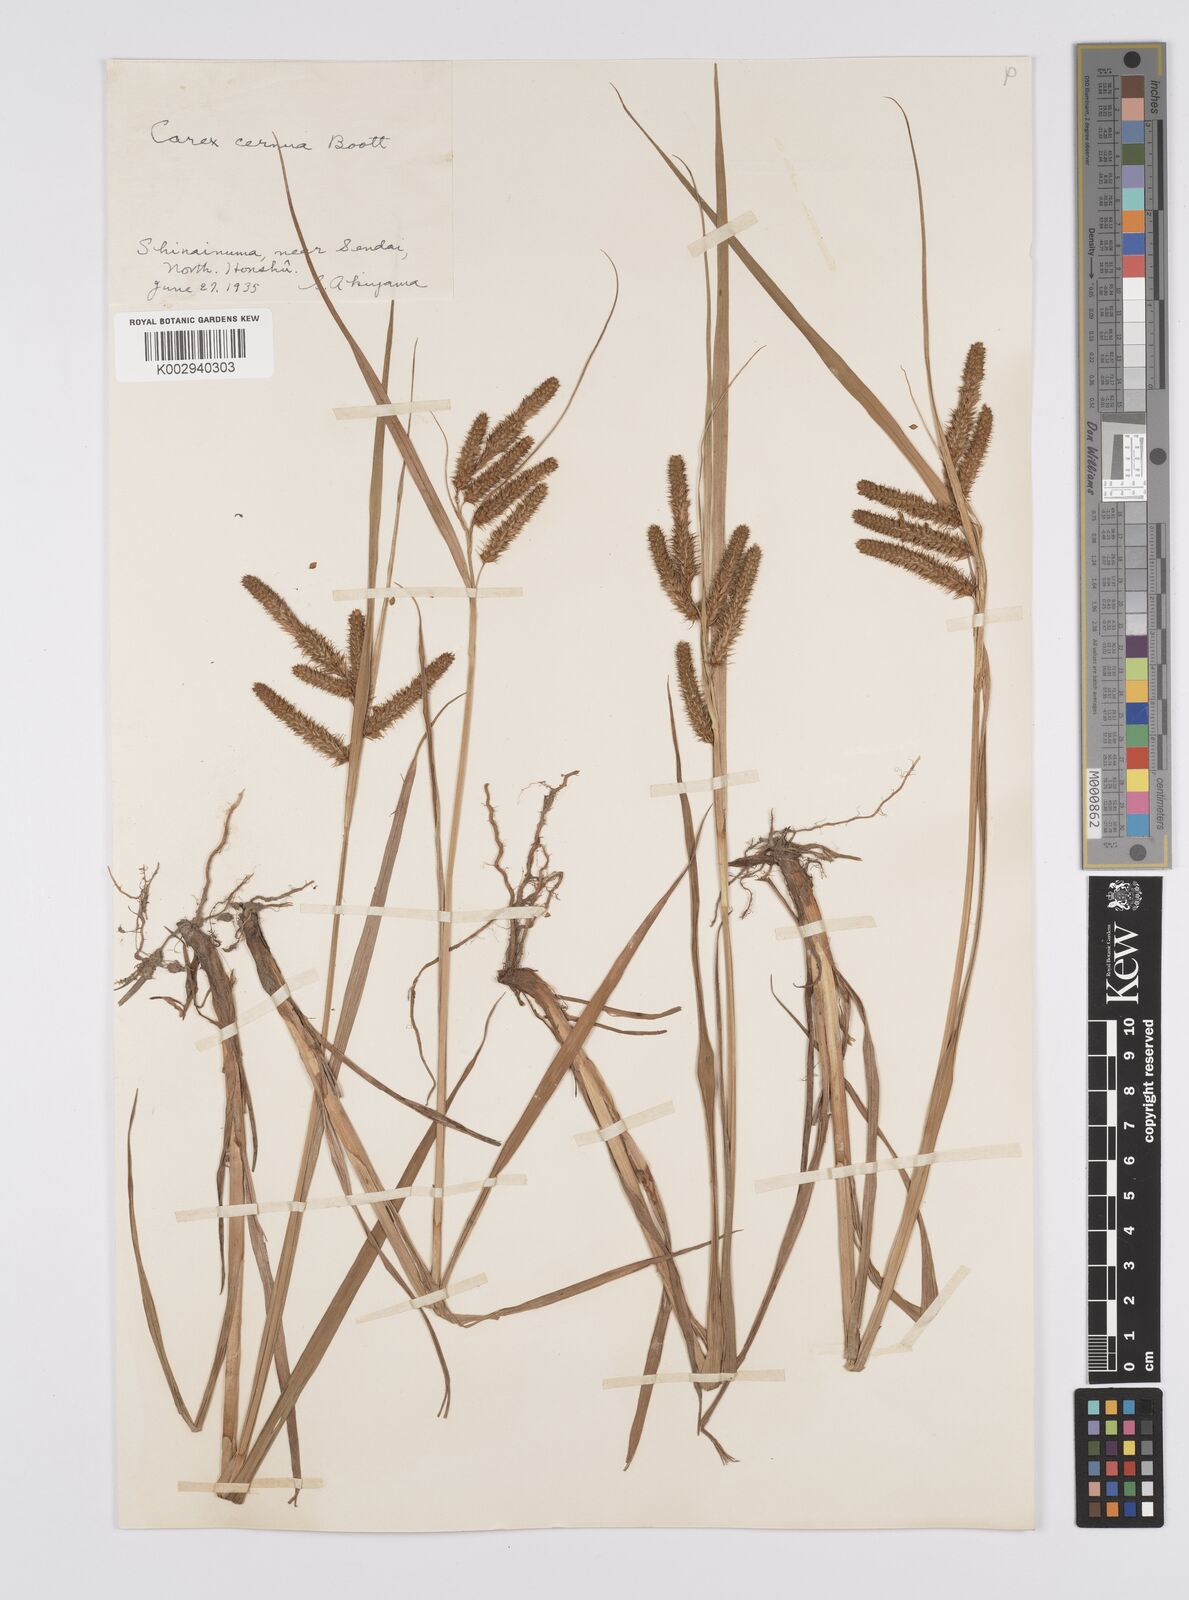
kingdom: Plantae
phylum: Tracheophyta
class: Liliopsida
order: Poales
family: Cyperaceae
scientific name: Cyperaceae
